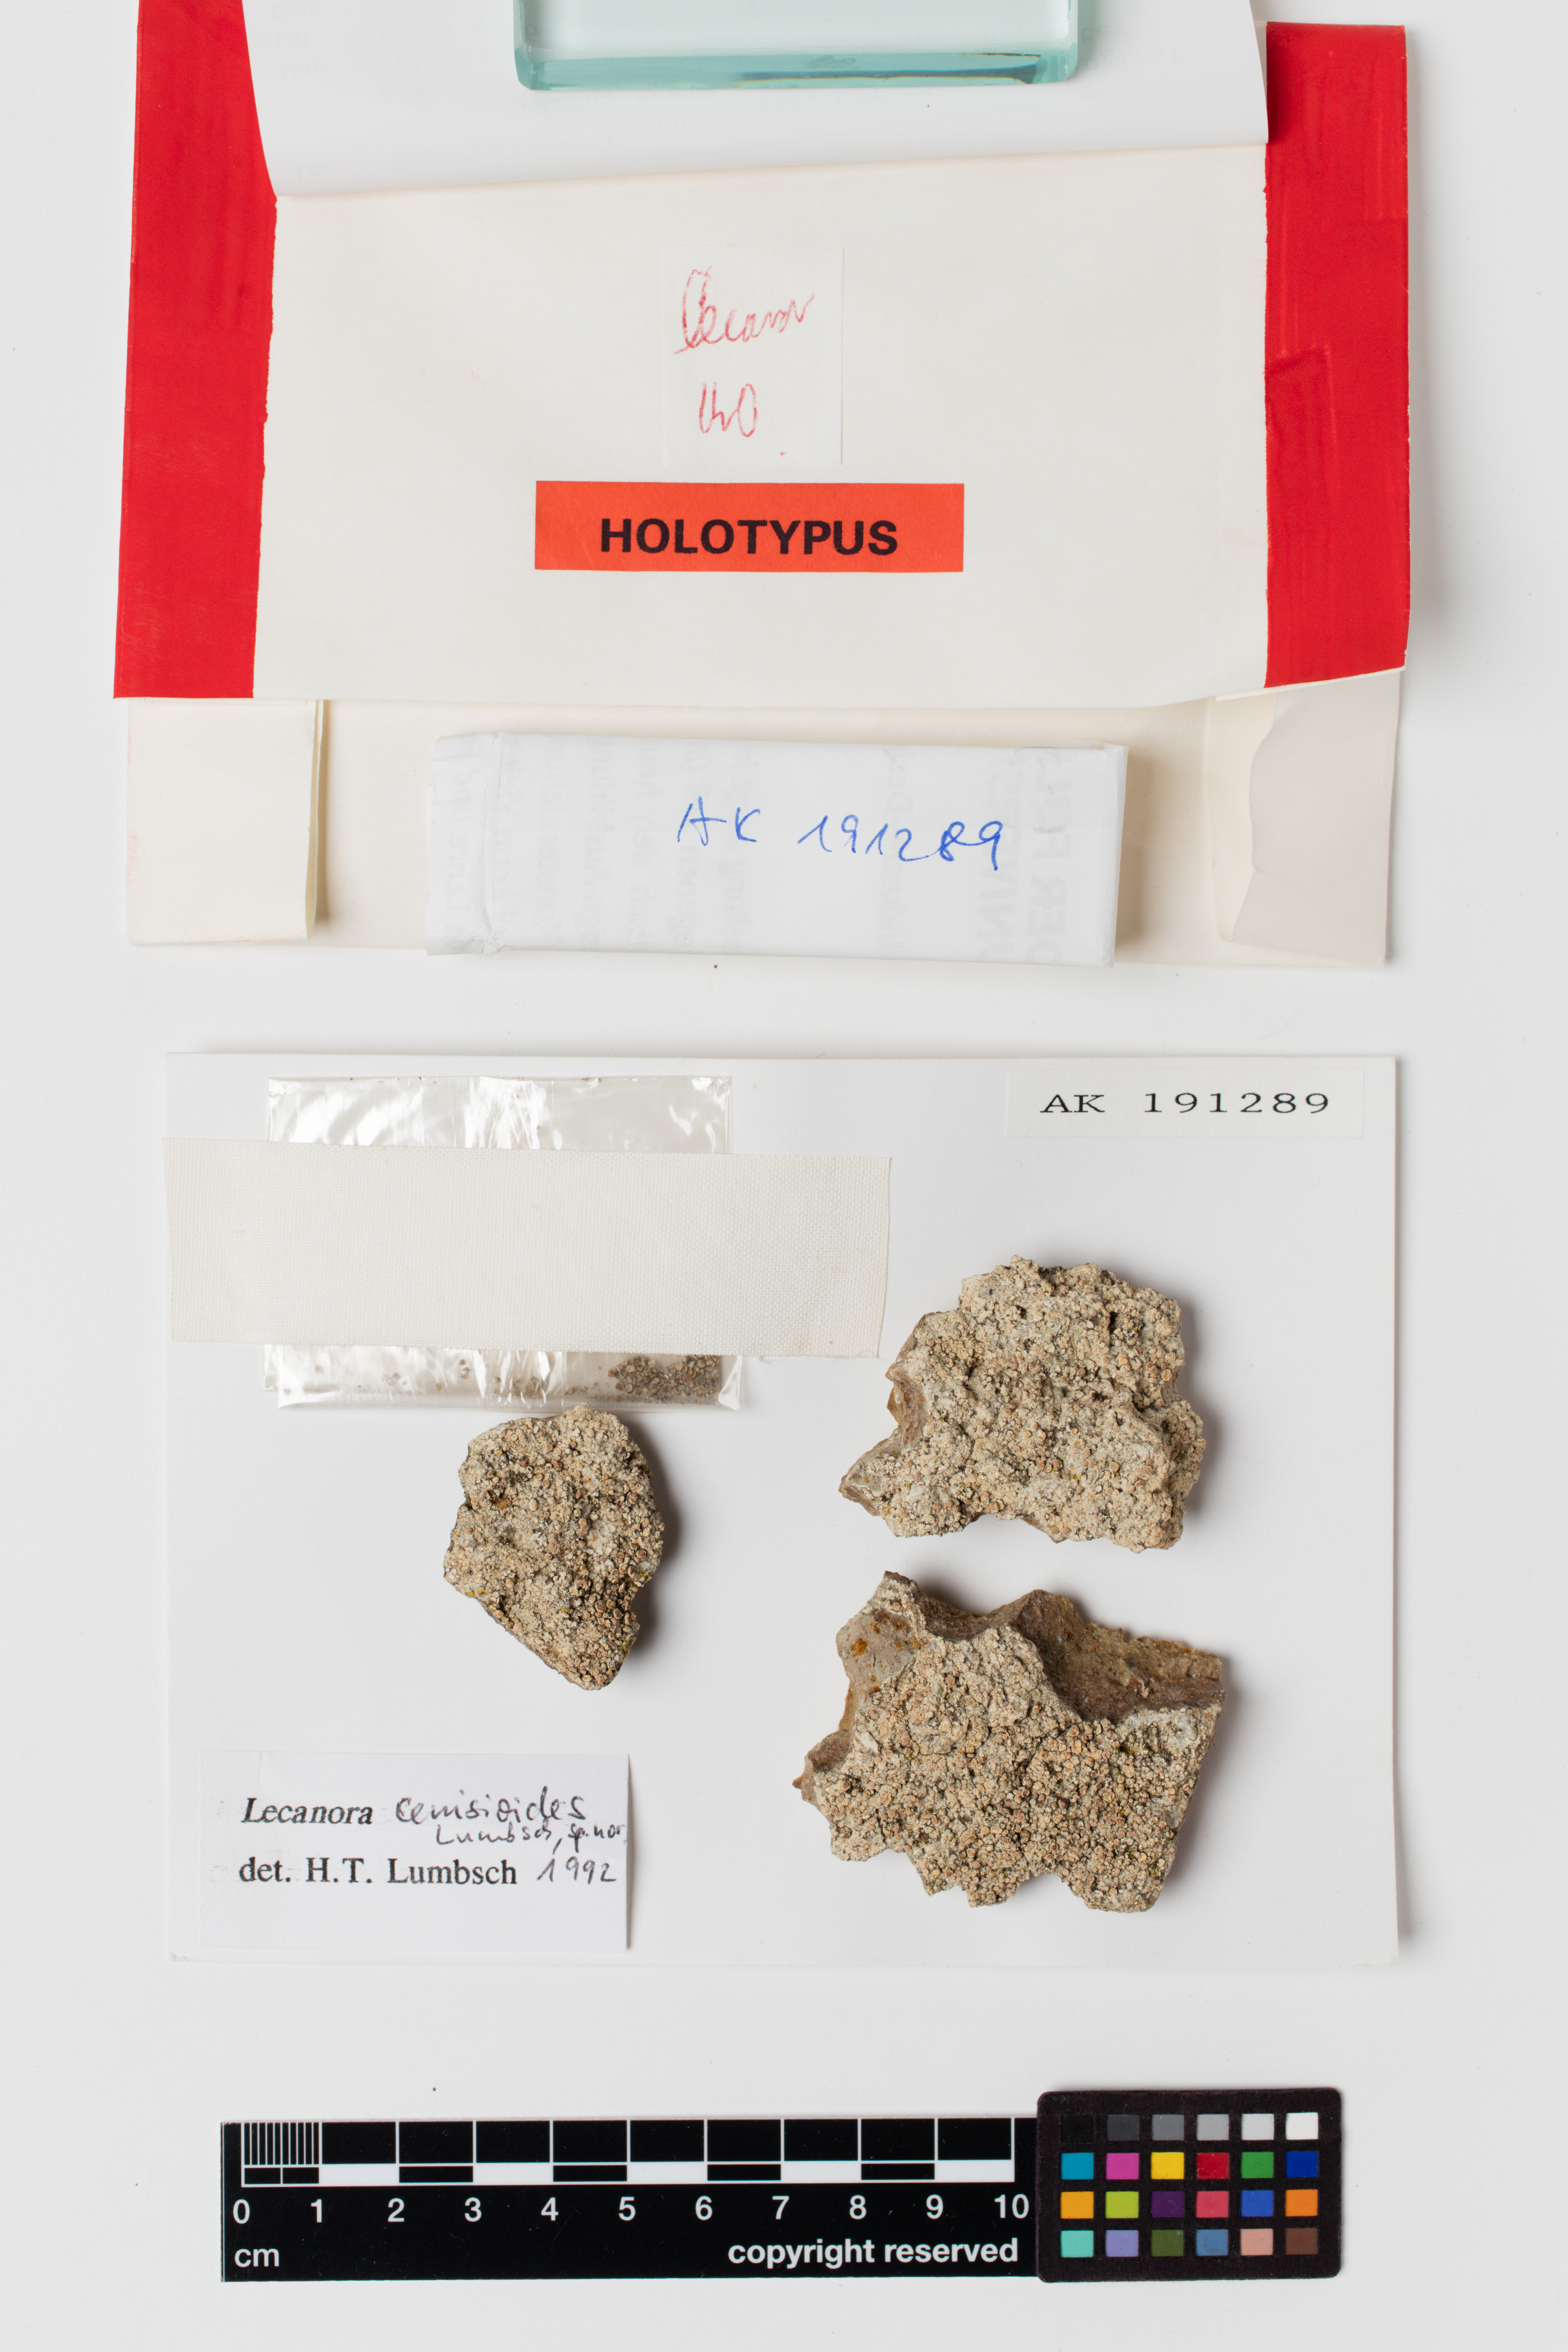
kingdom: Fungi
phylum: Ascomycota
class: Lecanoromycetes
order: Lecanorales
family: Lecanoraceae
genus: Lecanora
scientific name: Lecanora cenisioides
